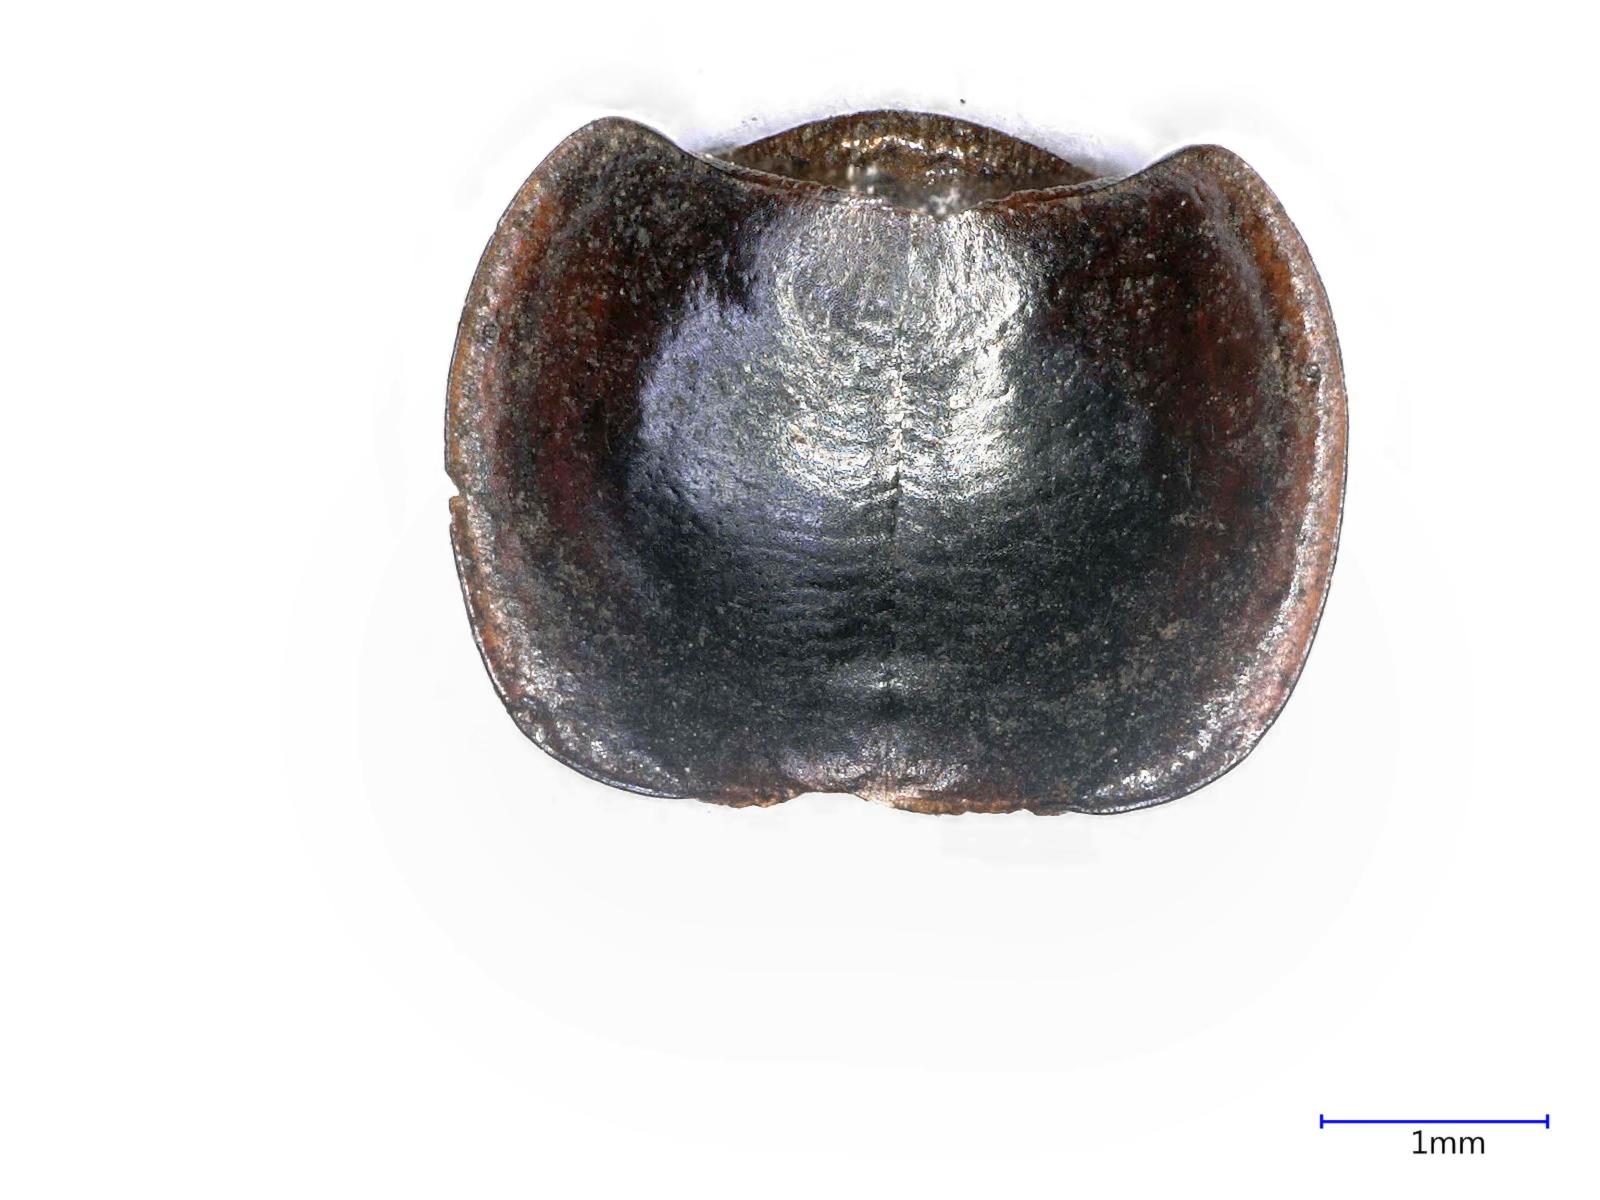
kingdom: Animalia
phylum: Arthropoda
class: Insecta
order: Coleoptera
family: Carabidae
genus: Tanystoma
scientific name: Tanystoma maculicolle
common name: Tule beetle
